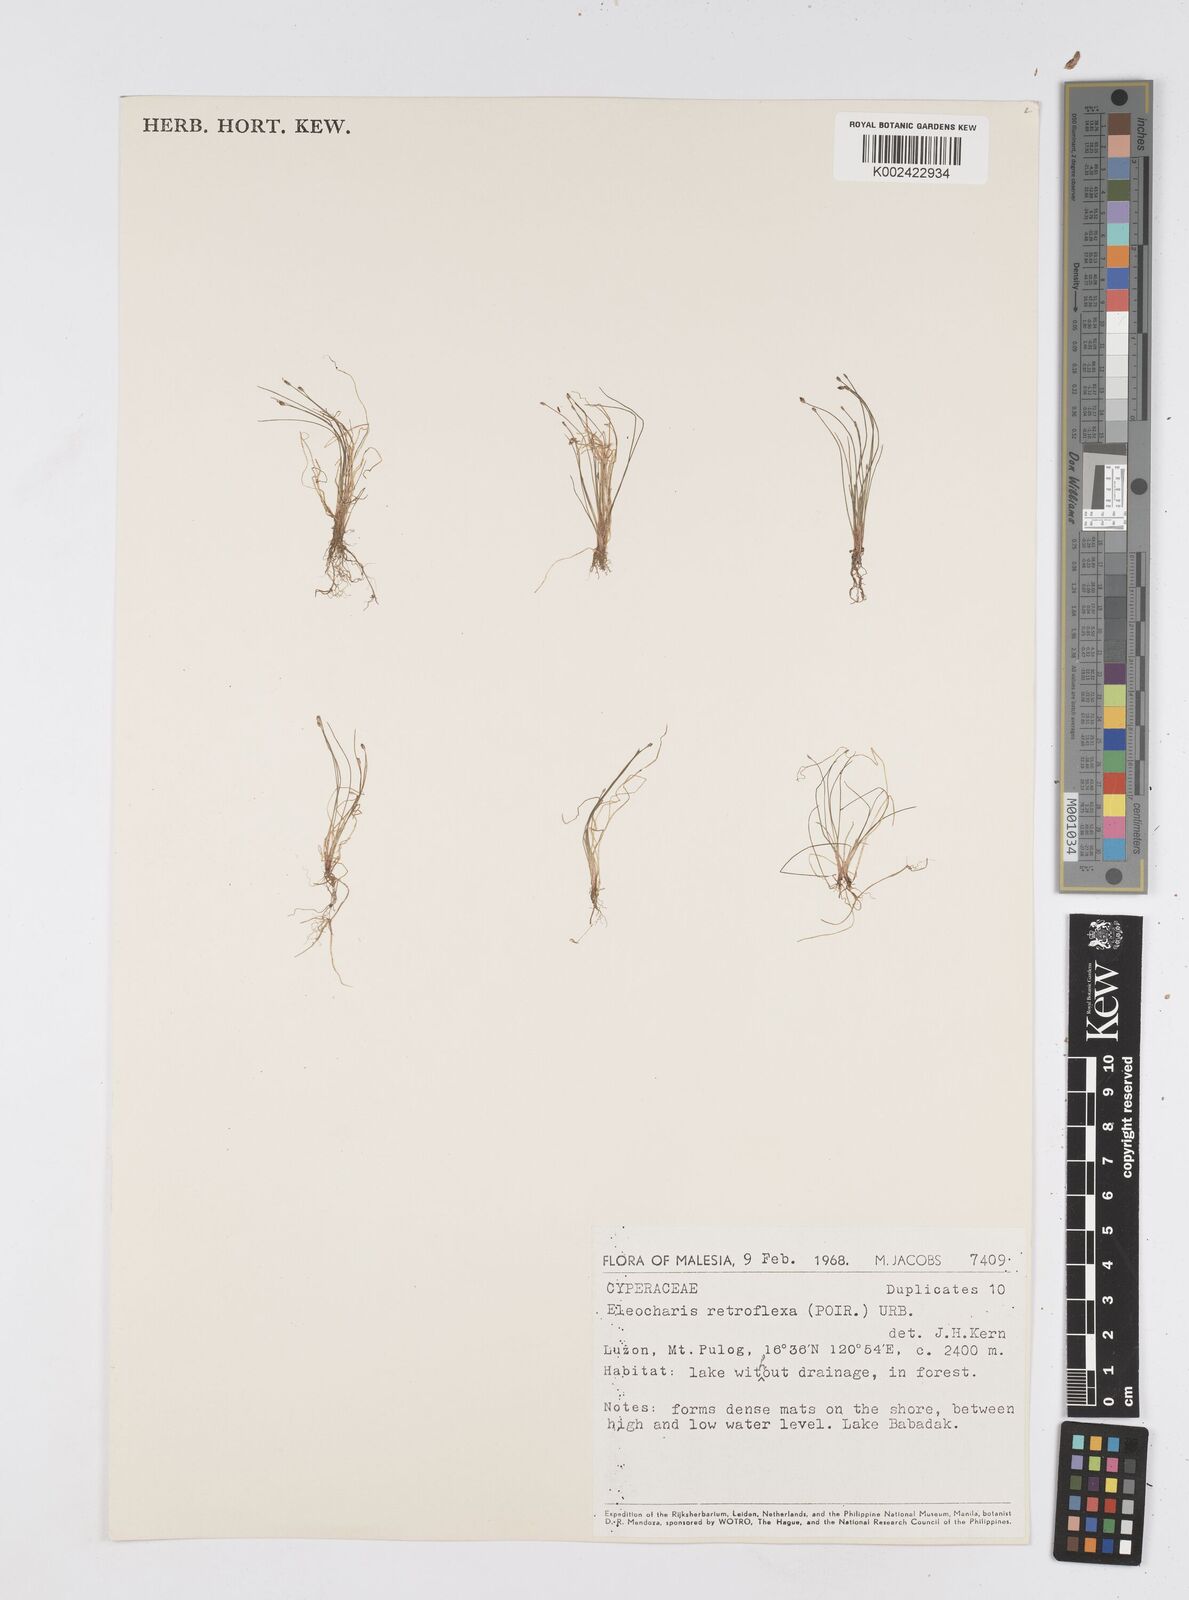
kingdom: Plantae
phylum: Tracheophyta
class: Liliopsida
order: Poales
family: Cyperaceae
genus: Eleocharis
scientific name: Eleocharis retroflexa
